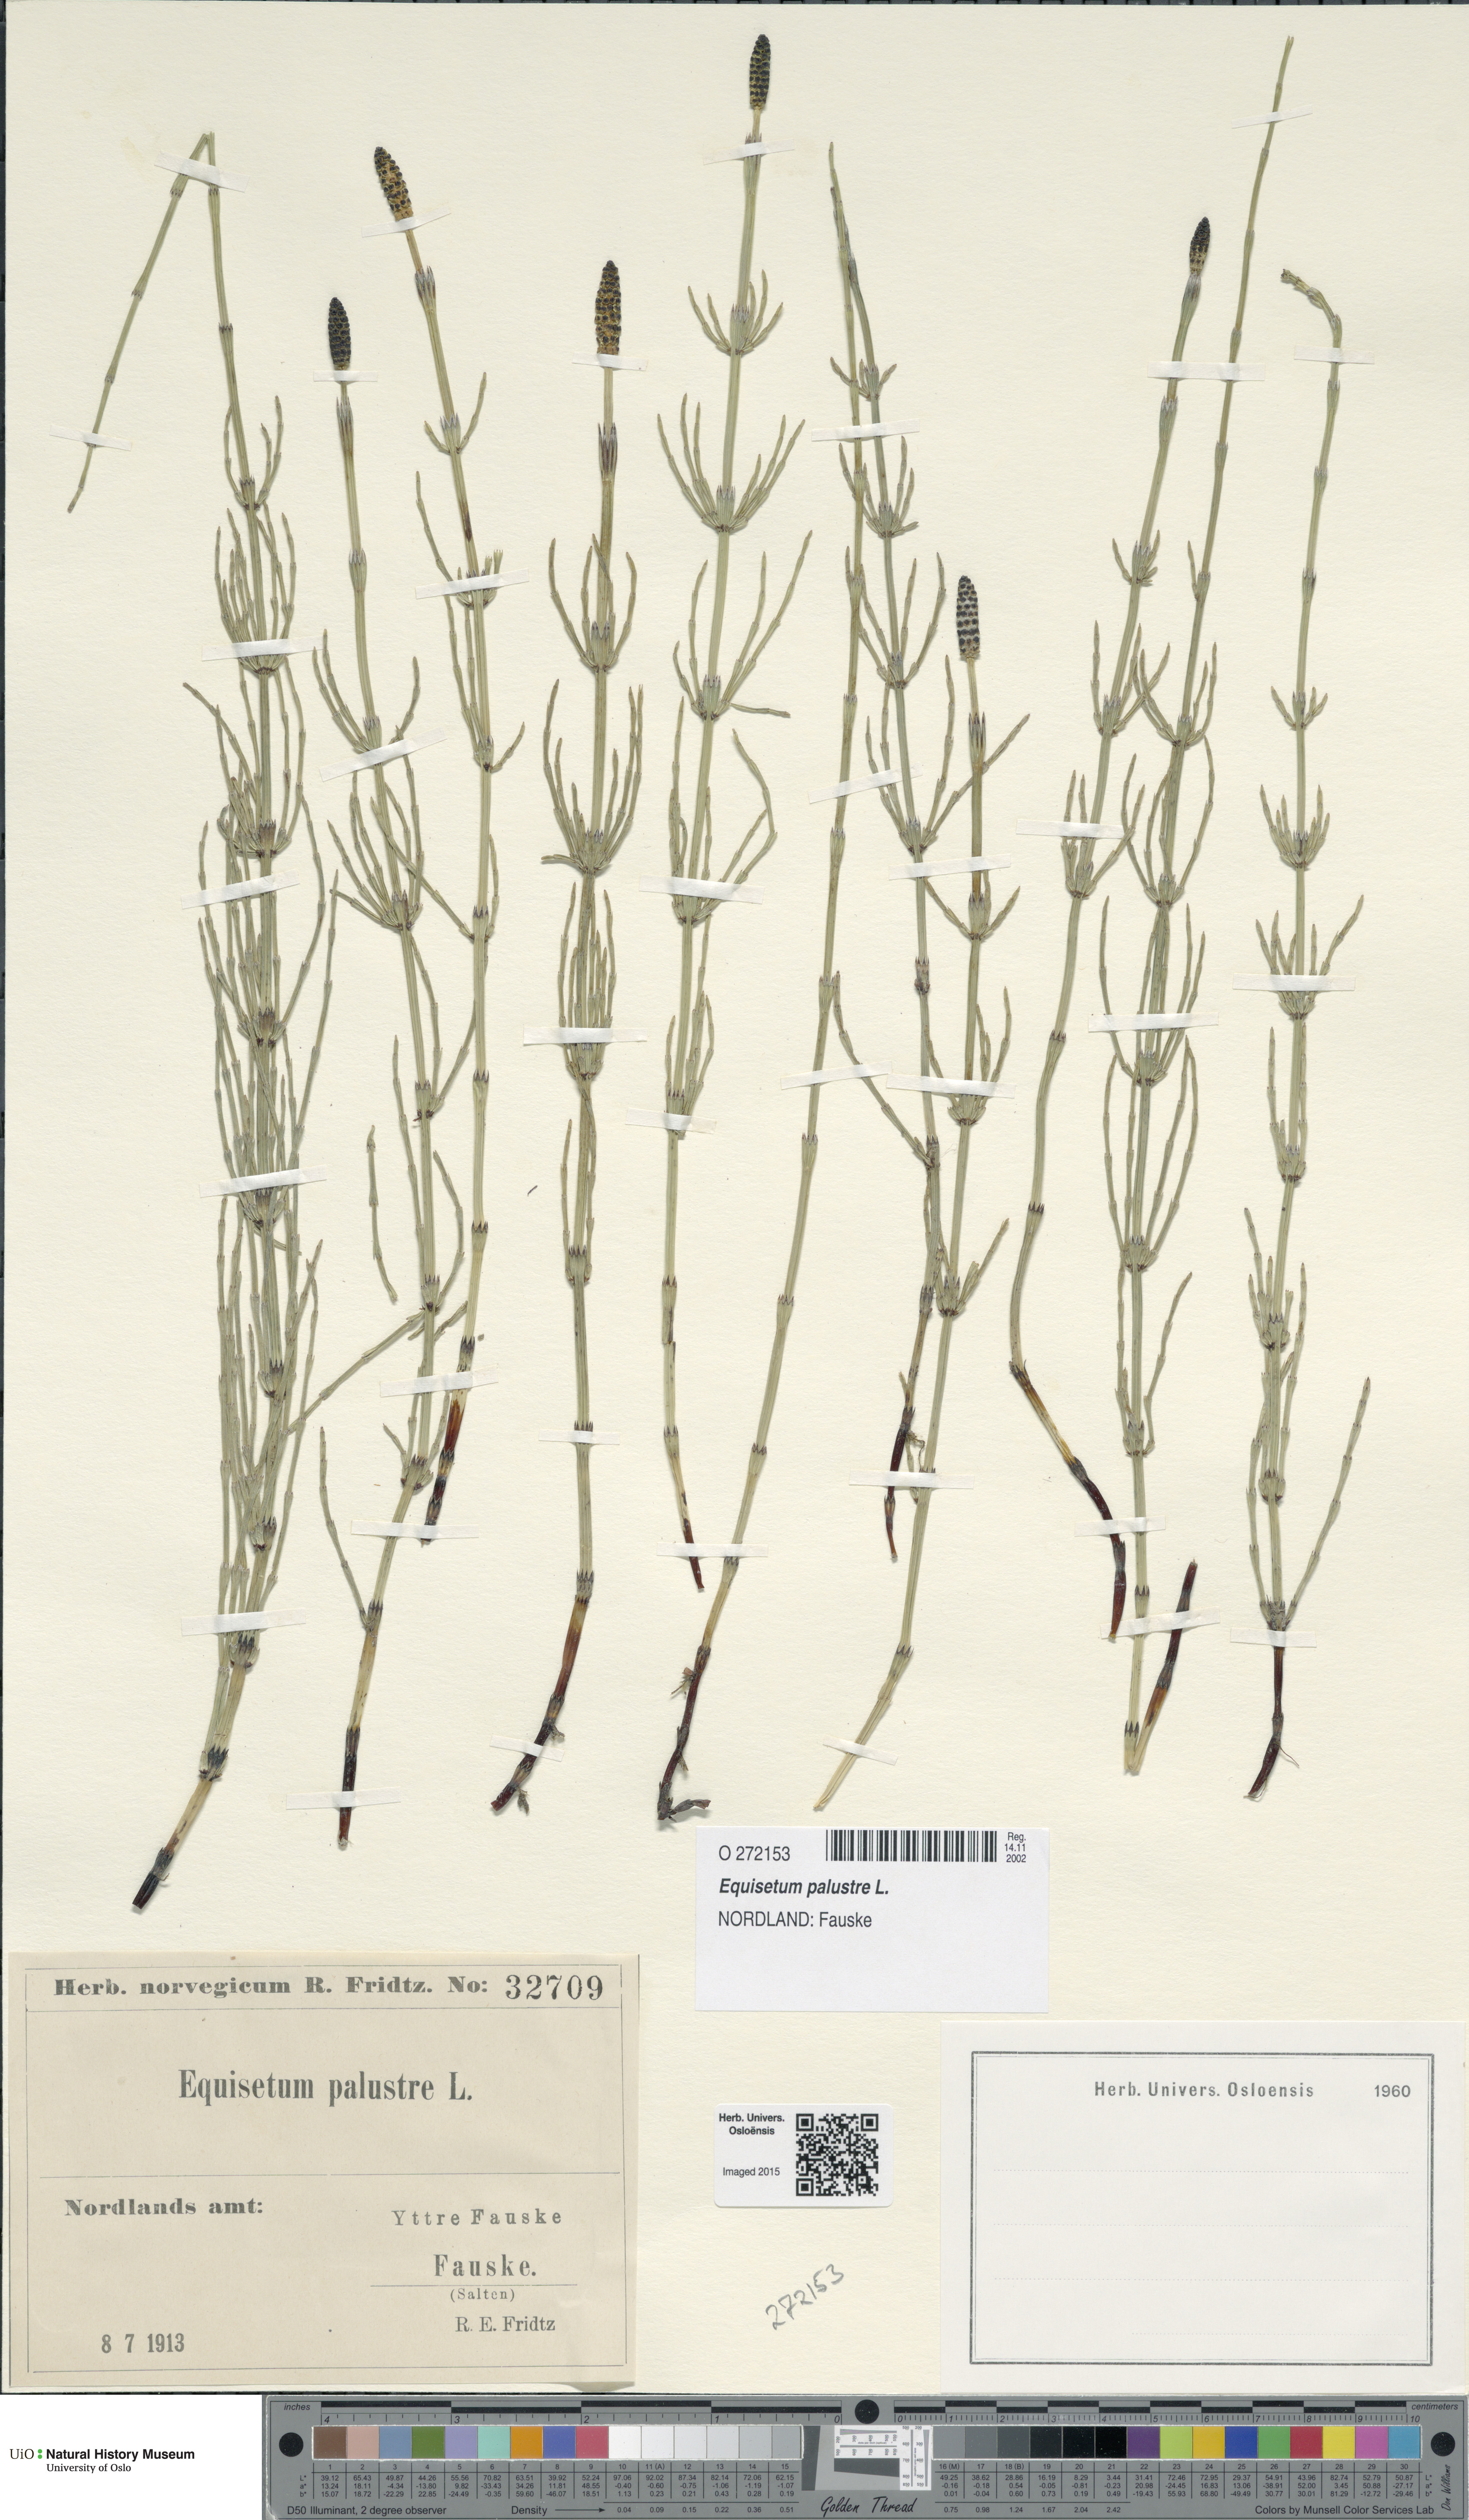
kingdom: Plantae
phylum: Tracheophyta
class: Polypodiopsida
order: Equisetales
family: Equisetaceae
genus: Equisetum
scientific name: Equisetum palustre
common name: Marsh horsetail
